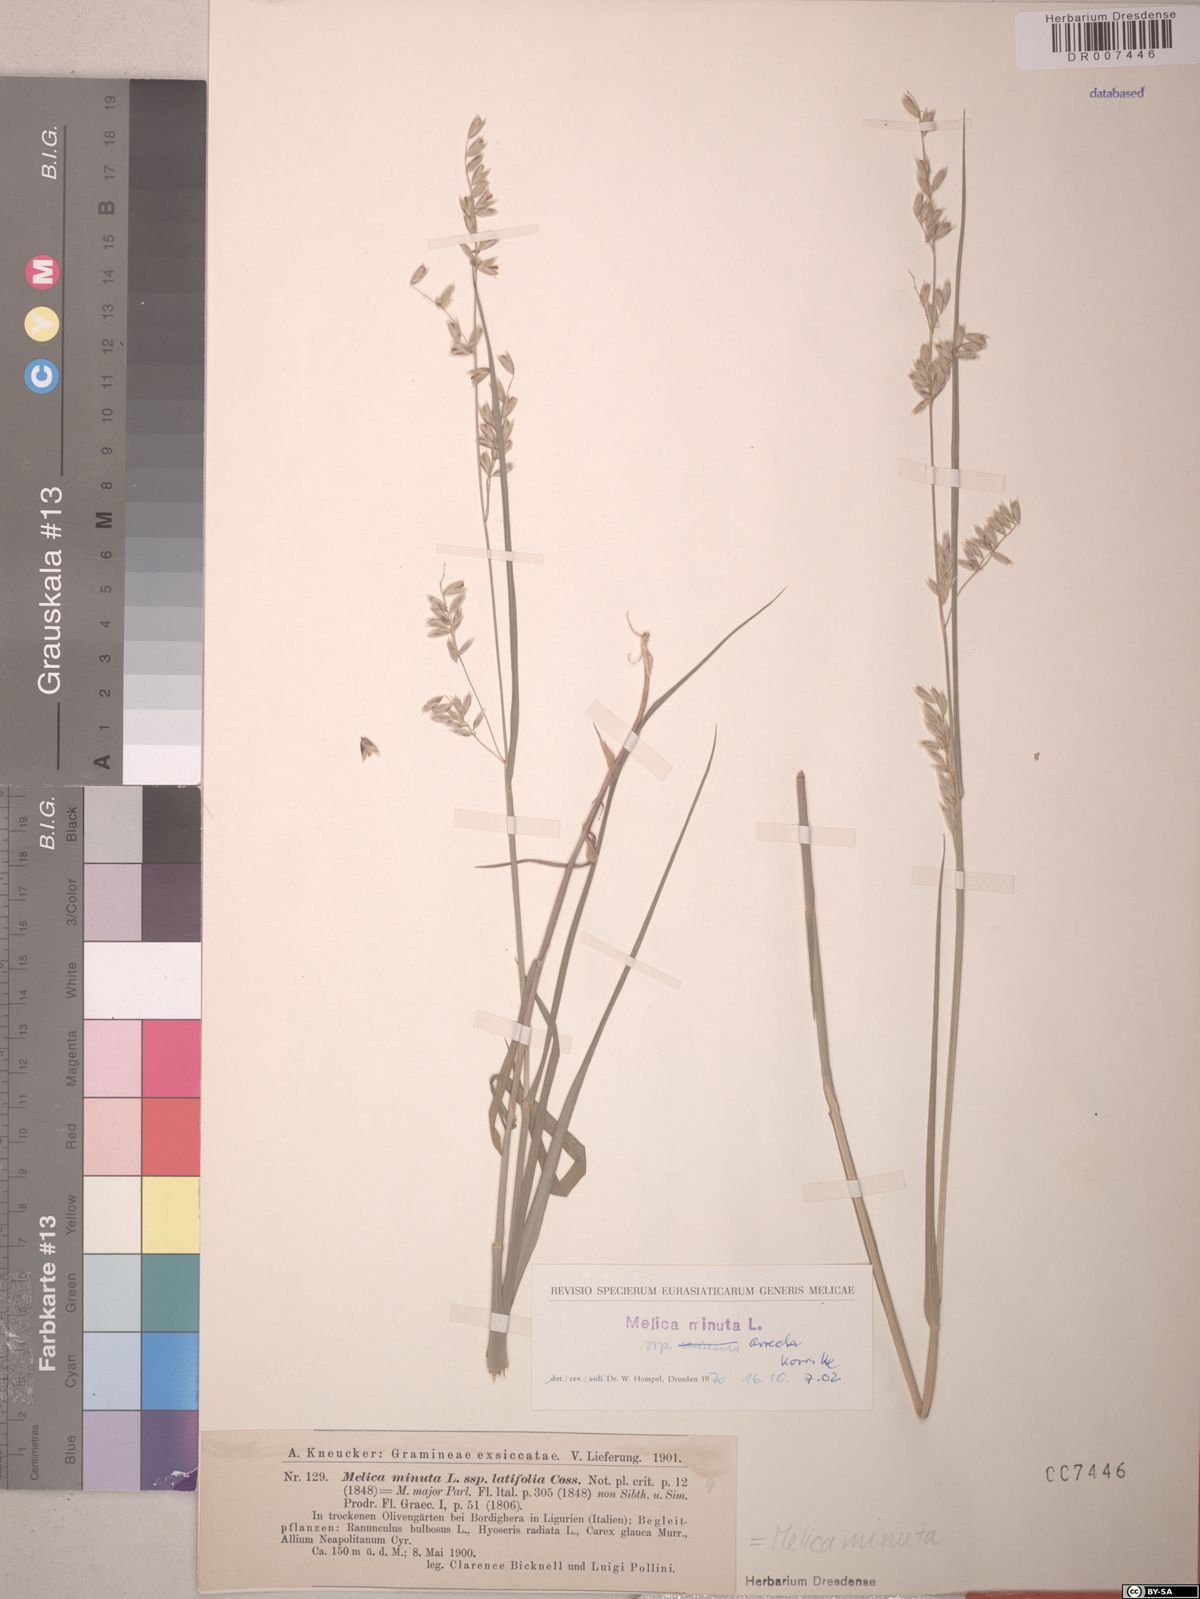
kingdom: Plantae
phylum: Tracheophyta
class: Liliopsida
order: Poales
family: Poaceae
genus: Melica
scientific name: Melica minuta
